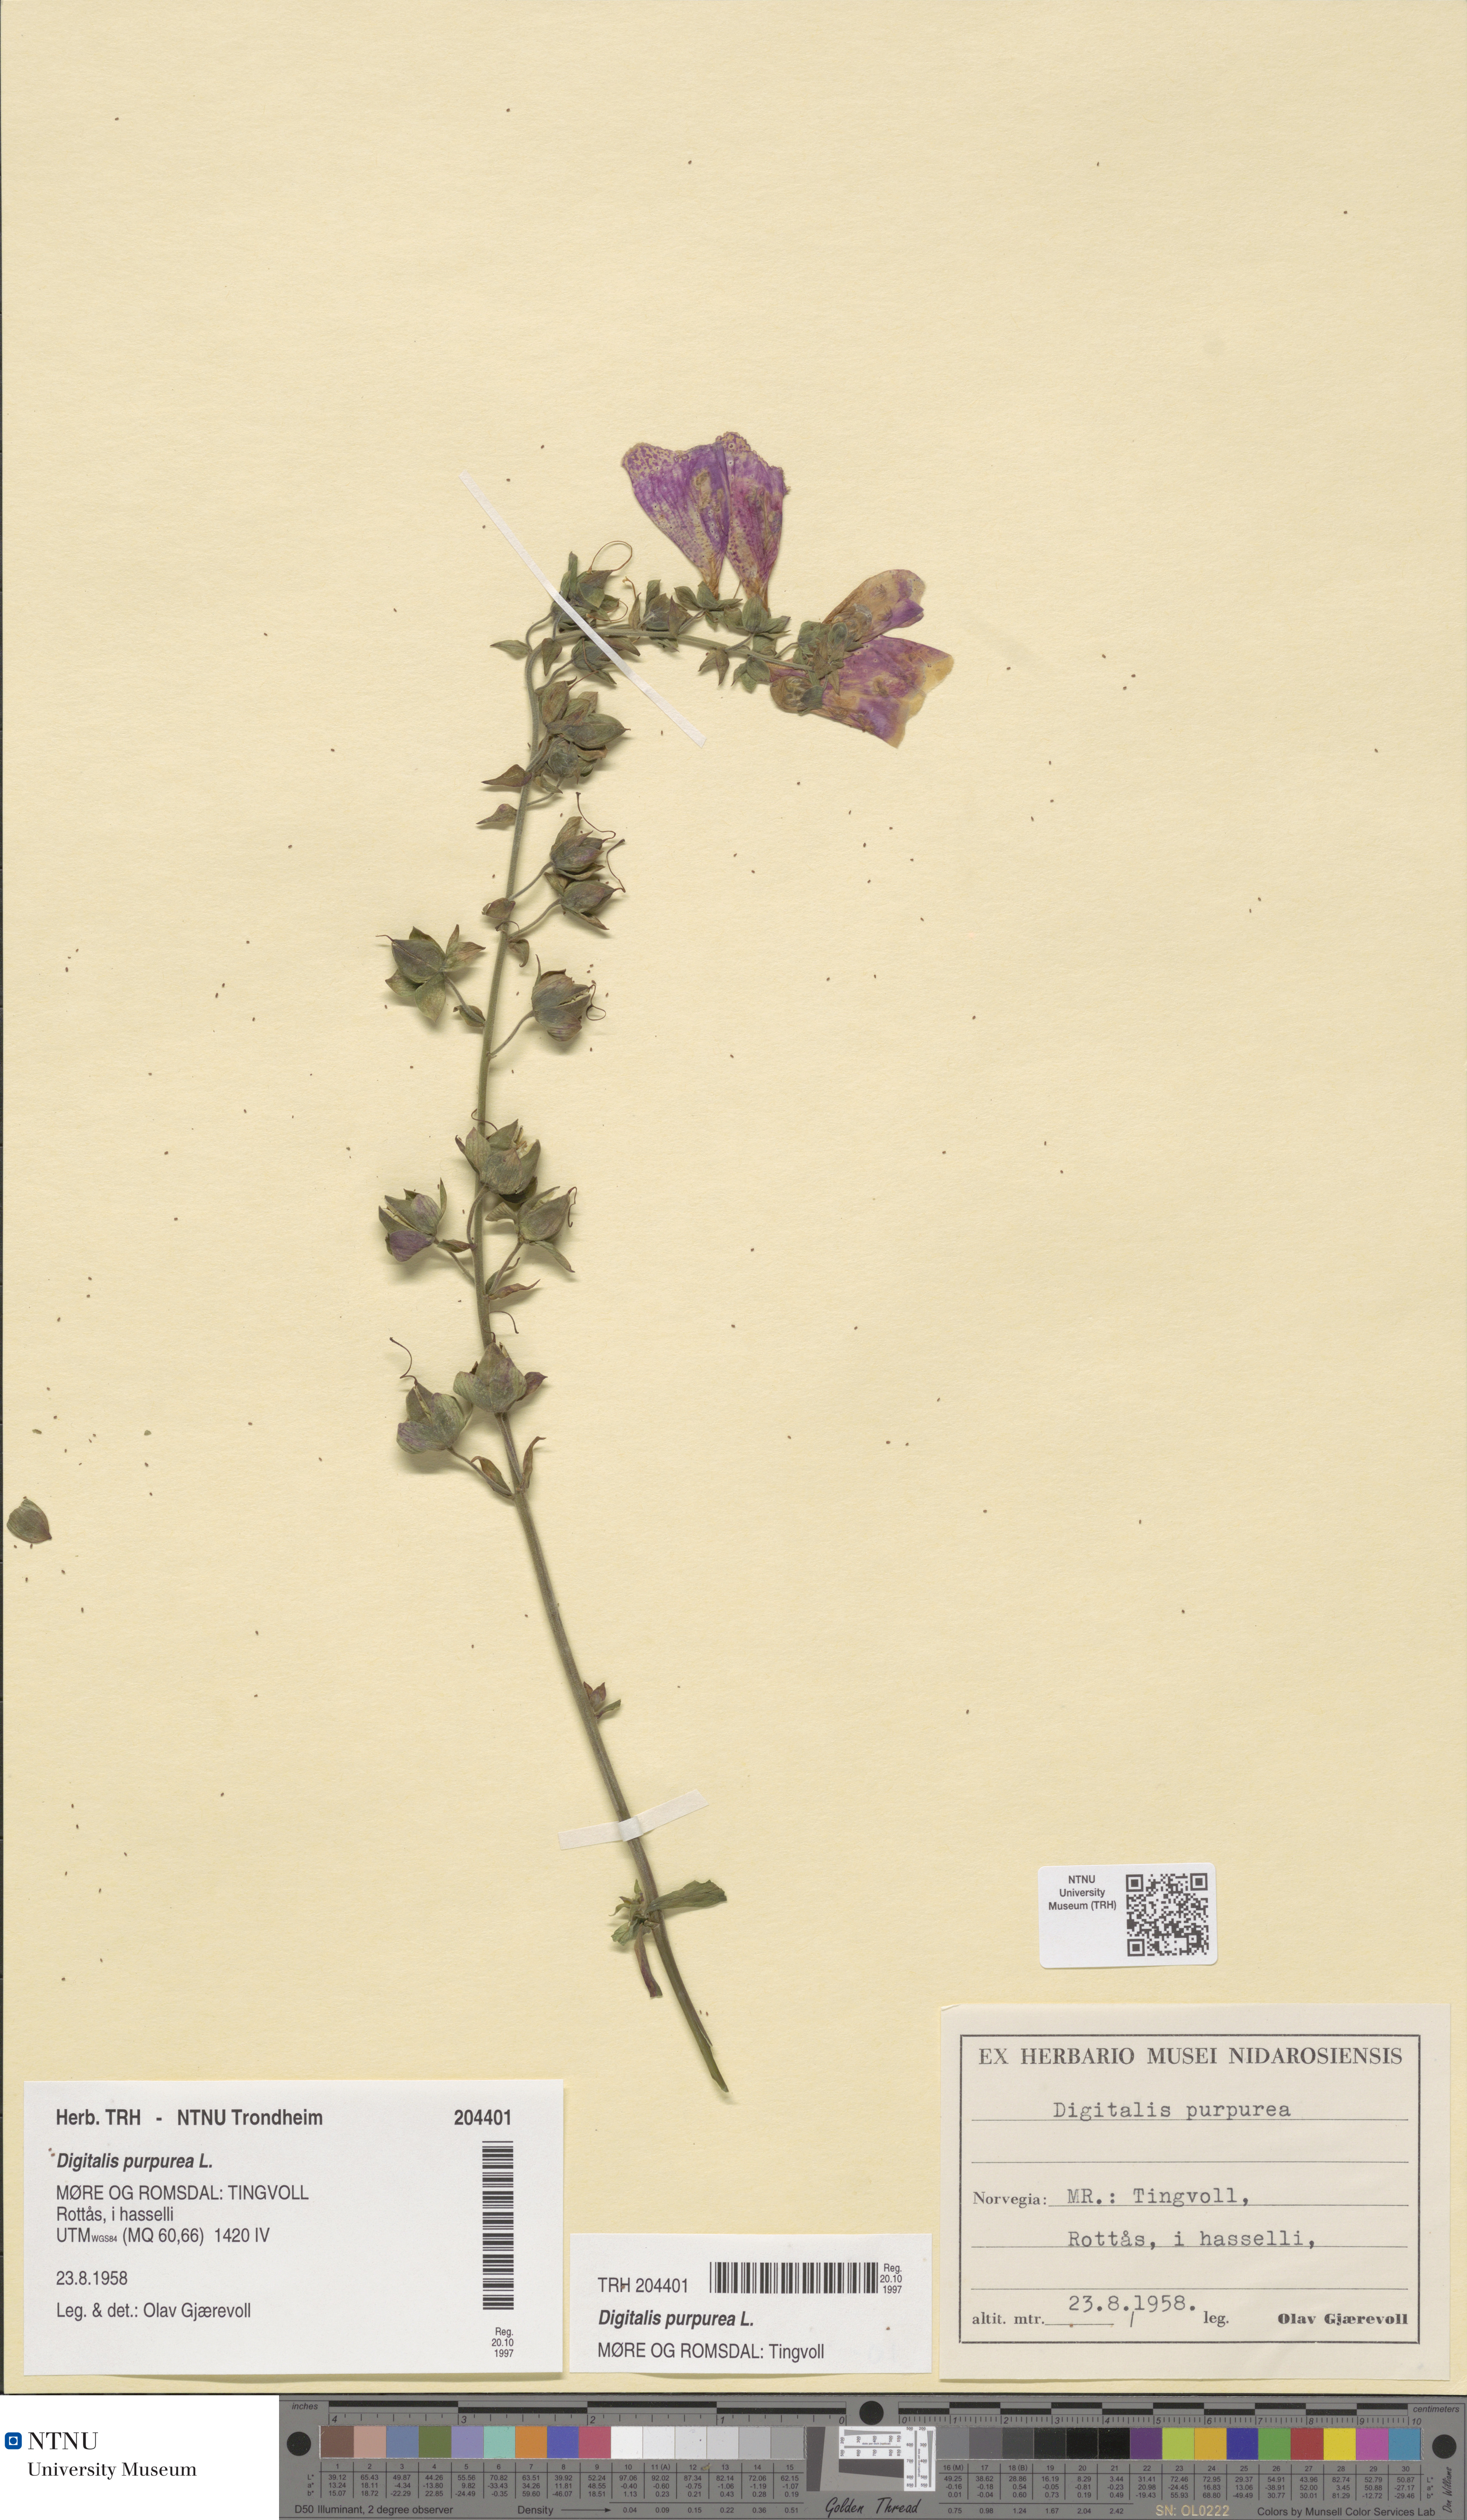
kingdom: Plantae
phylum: Tracheophyta
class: Magnoliopsida
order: Lamiales
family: Plantaginaceae
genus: Digitalis
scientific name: Digitalis purpurea
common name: Foxglove
